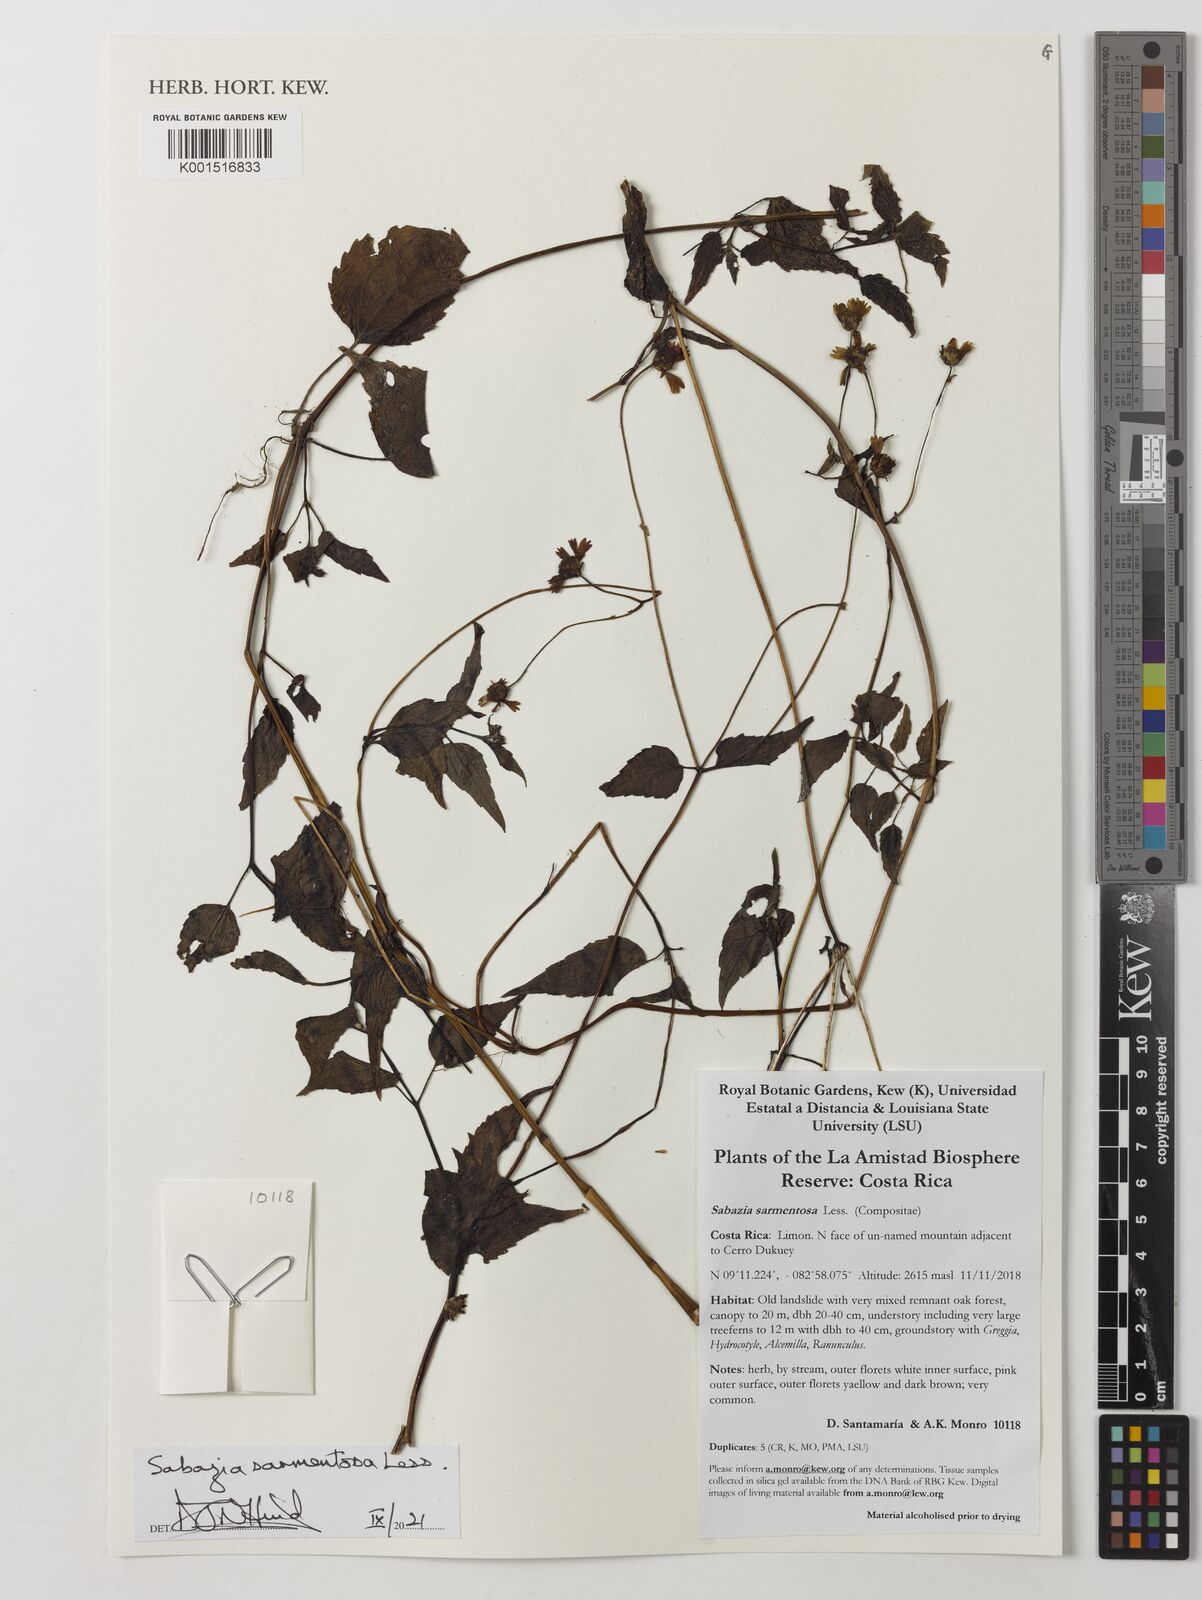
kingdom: Plantae
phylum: Tracheophyta
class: Magnoliopsida
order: Asterales
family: Asteraceae
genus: Sabazia
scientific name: Sabazia sarmentosa
